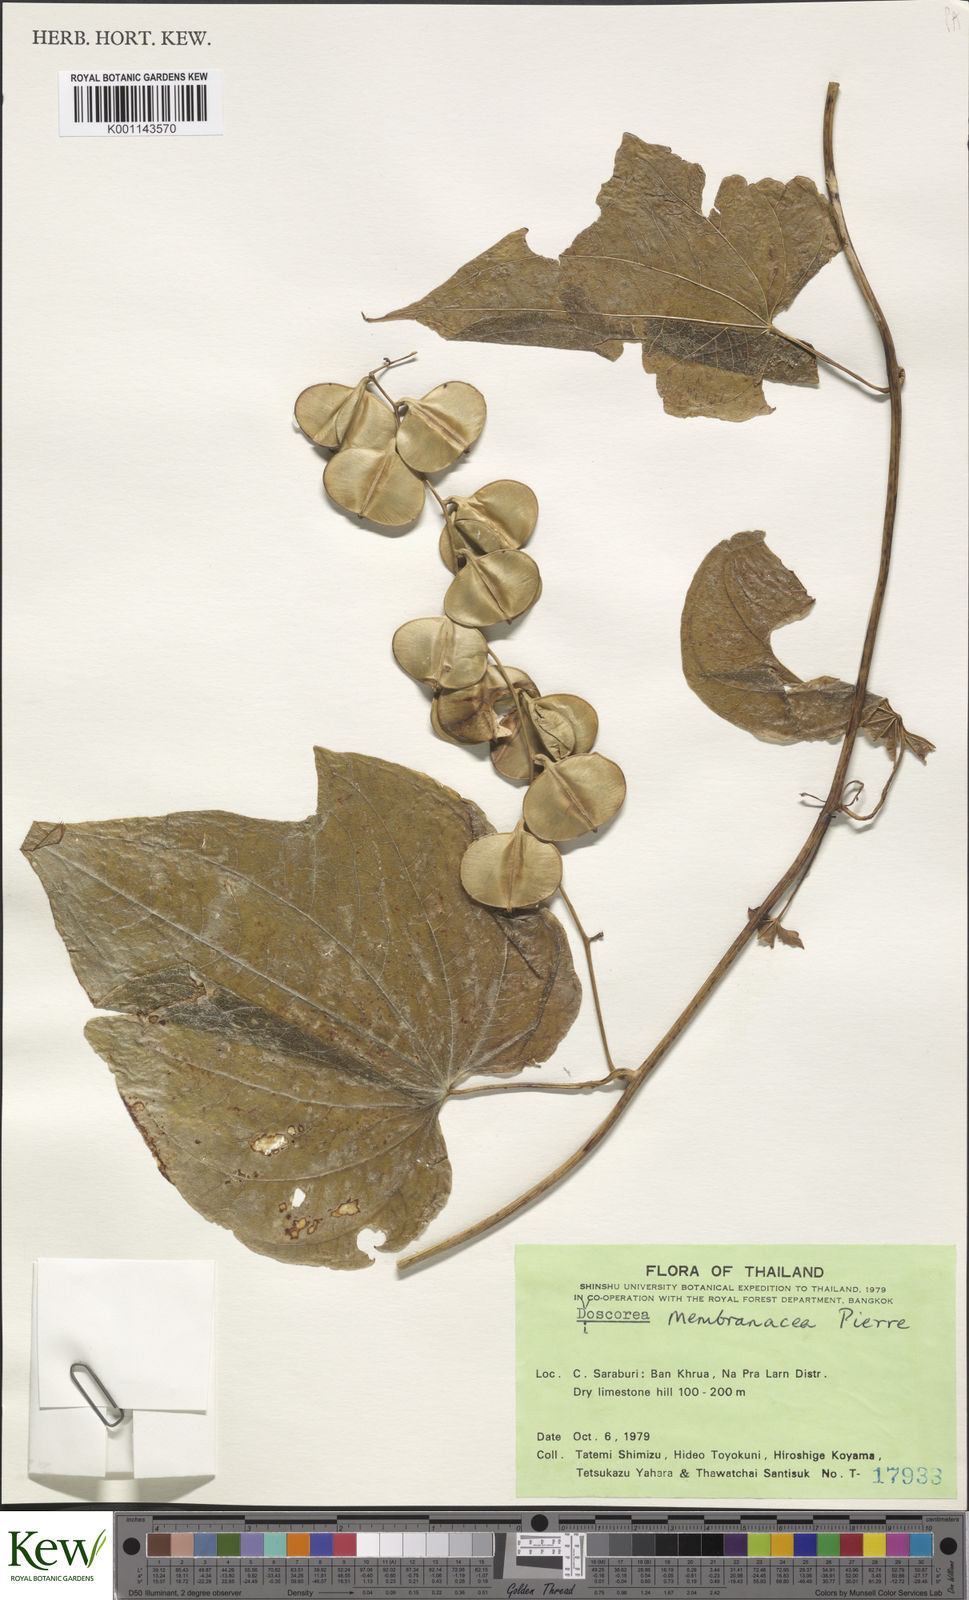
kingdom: Plantae
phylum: Tracheophyta
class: Liliopsida
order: Dioscoreales
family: Dioscoreaceae
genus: Dioscorea
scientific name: Dioscorea membranacea
